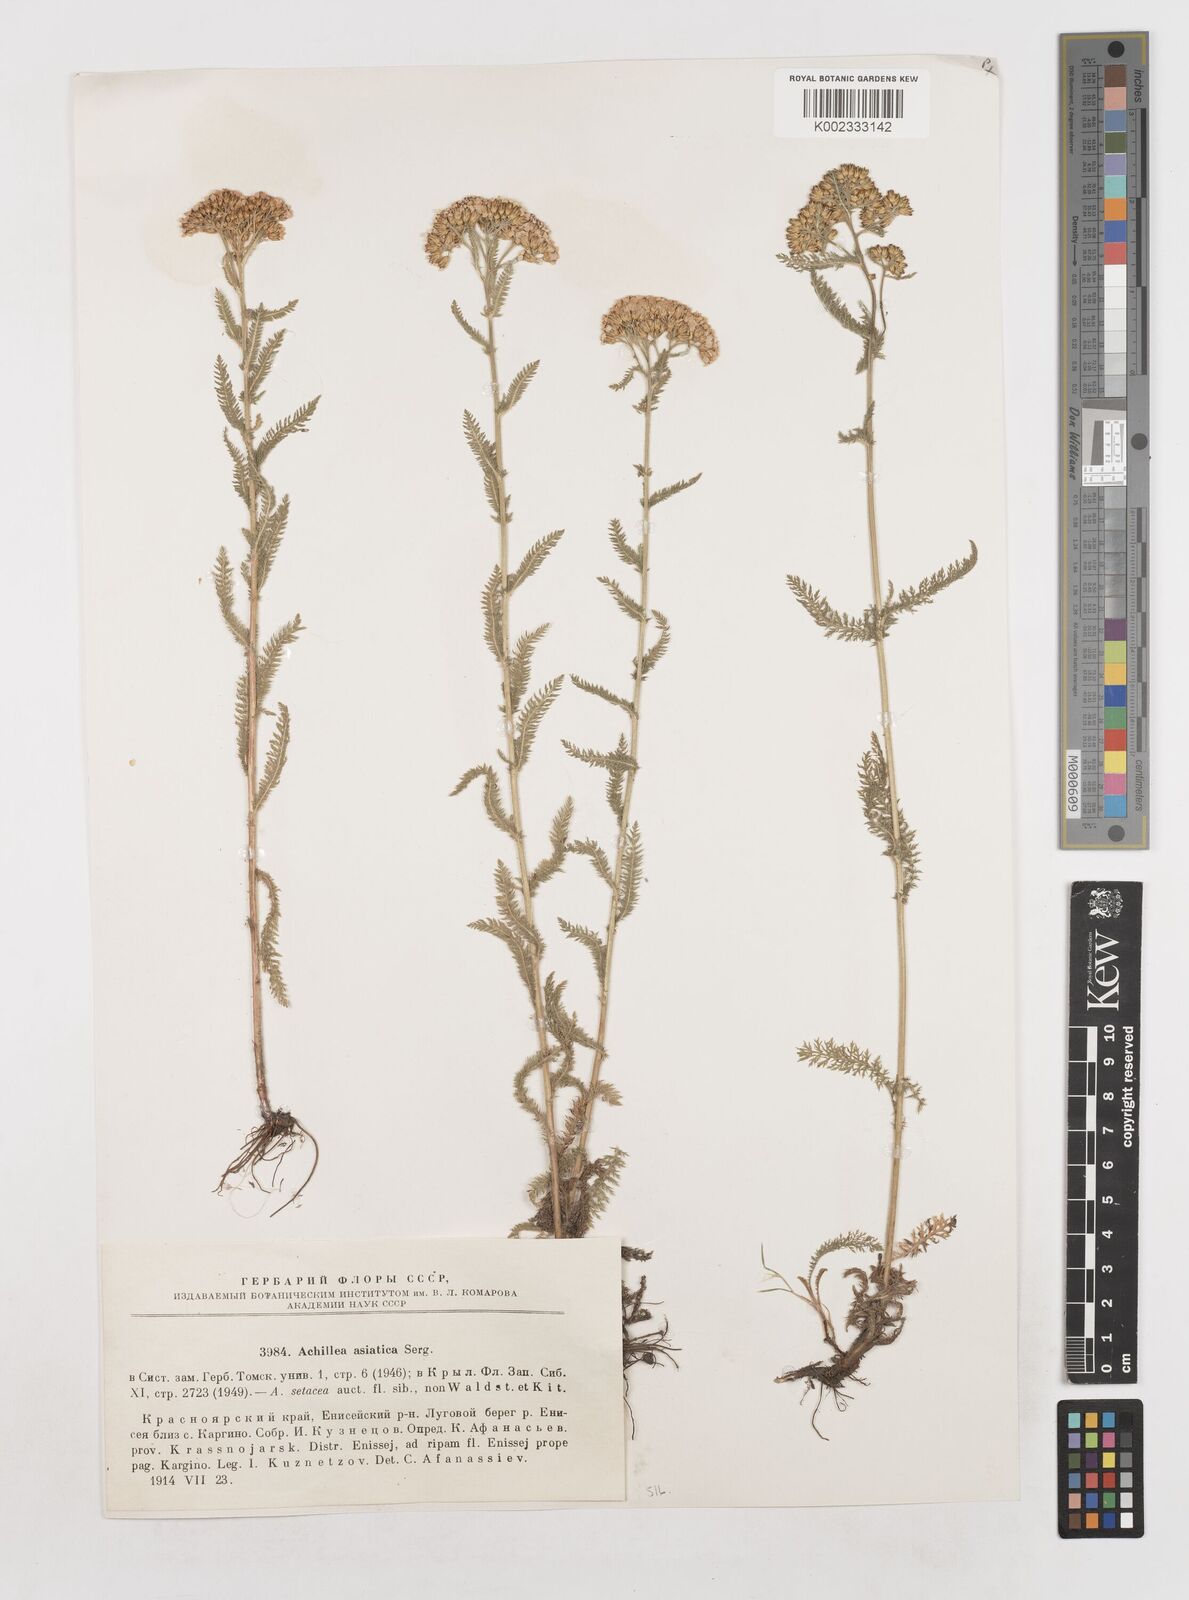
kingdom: Plantae
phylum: Tracheophyta
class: Magnoliopsida
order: Asterales
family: Asteraceae
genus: Achillea
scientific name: Achillea asiatica
